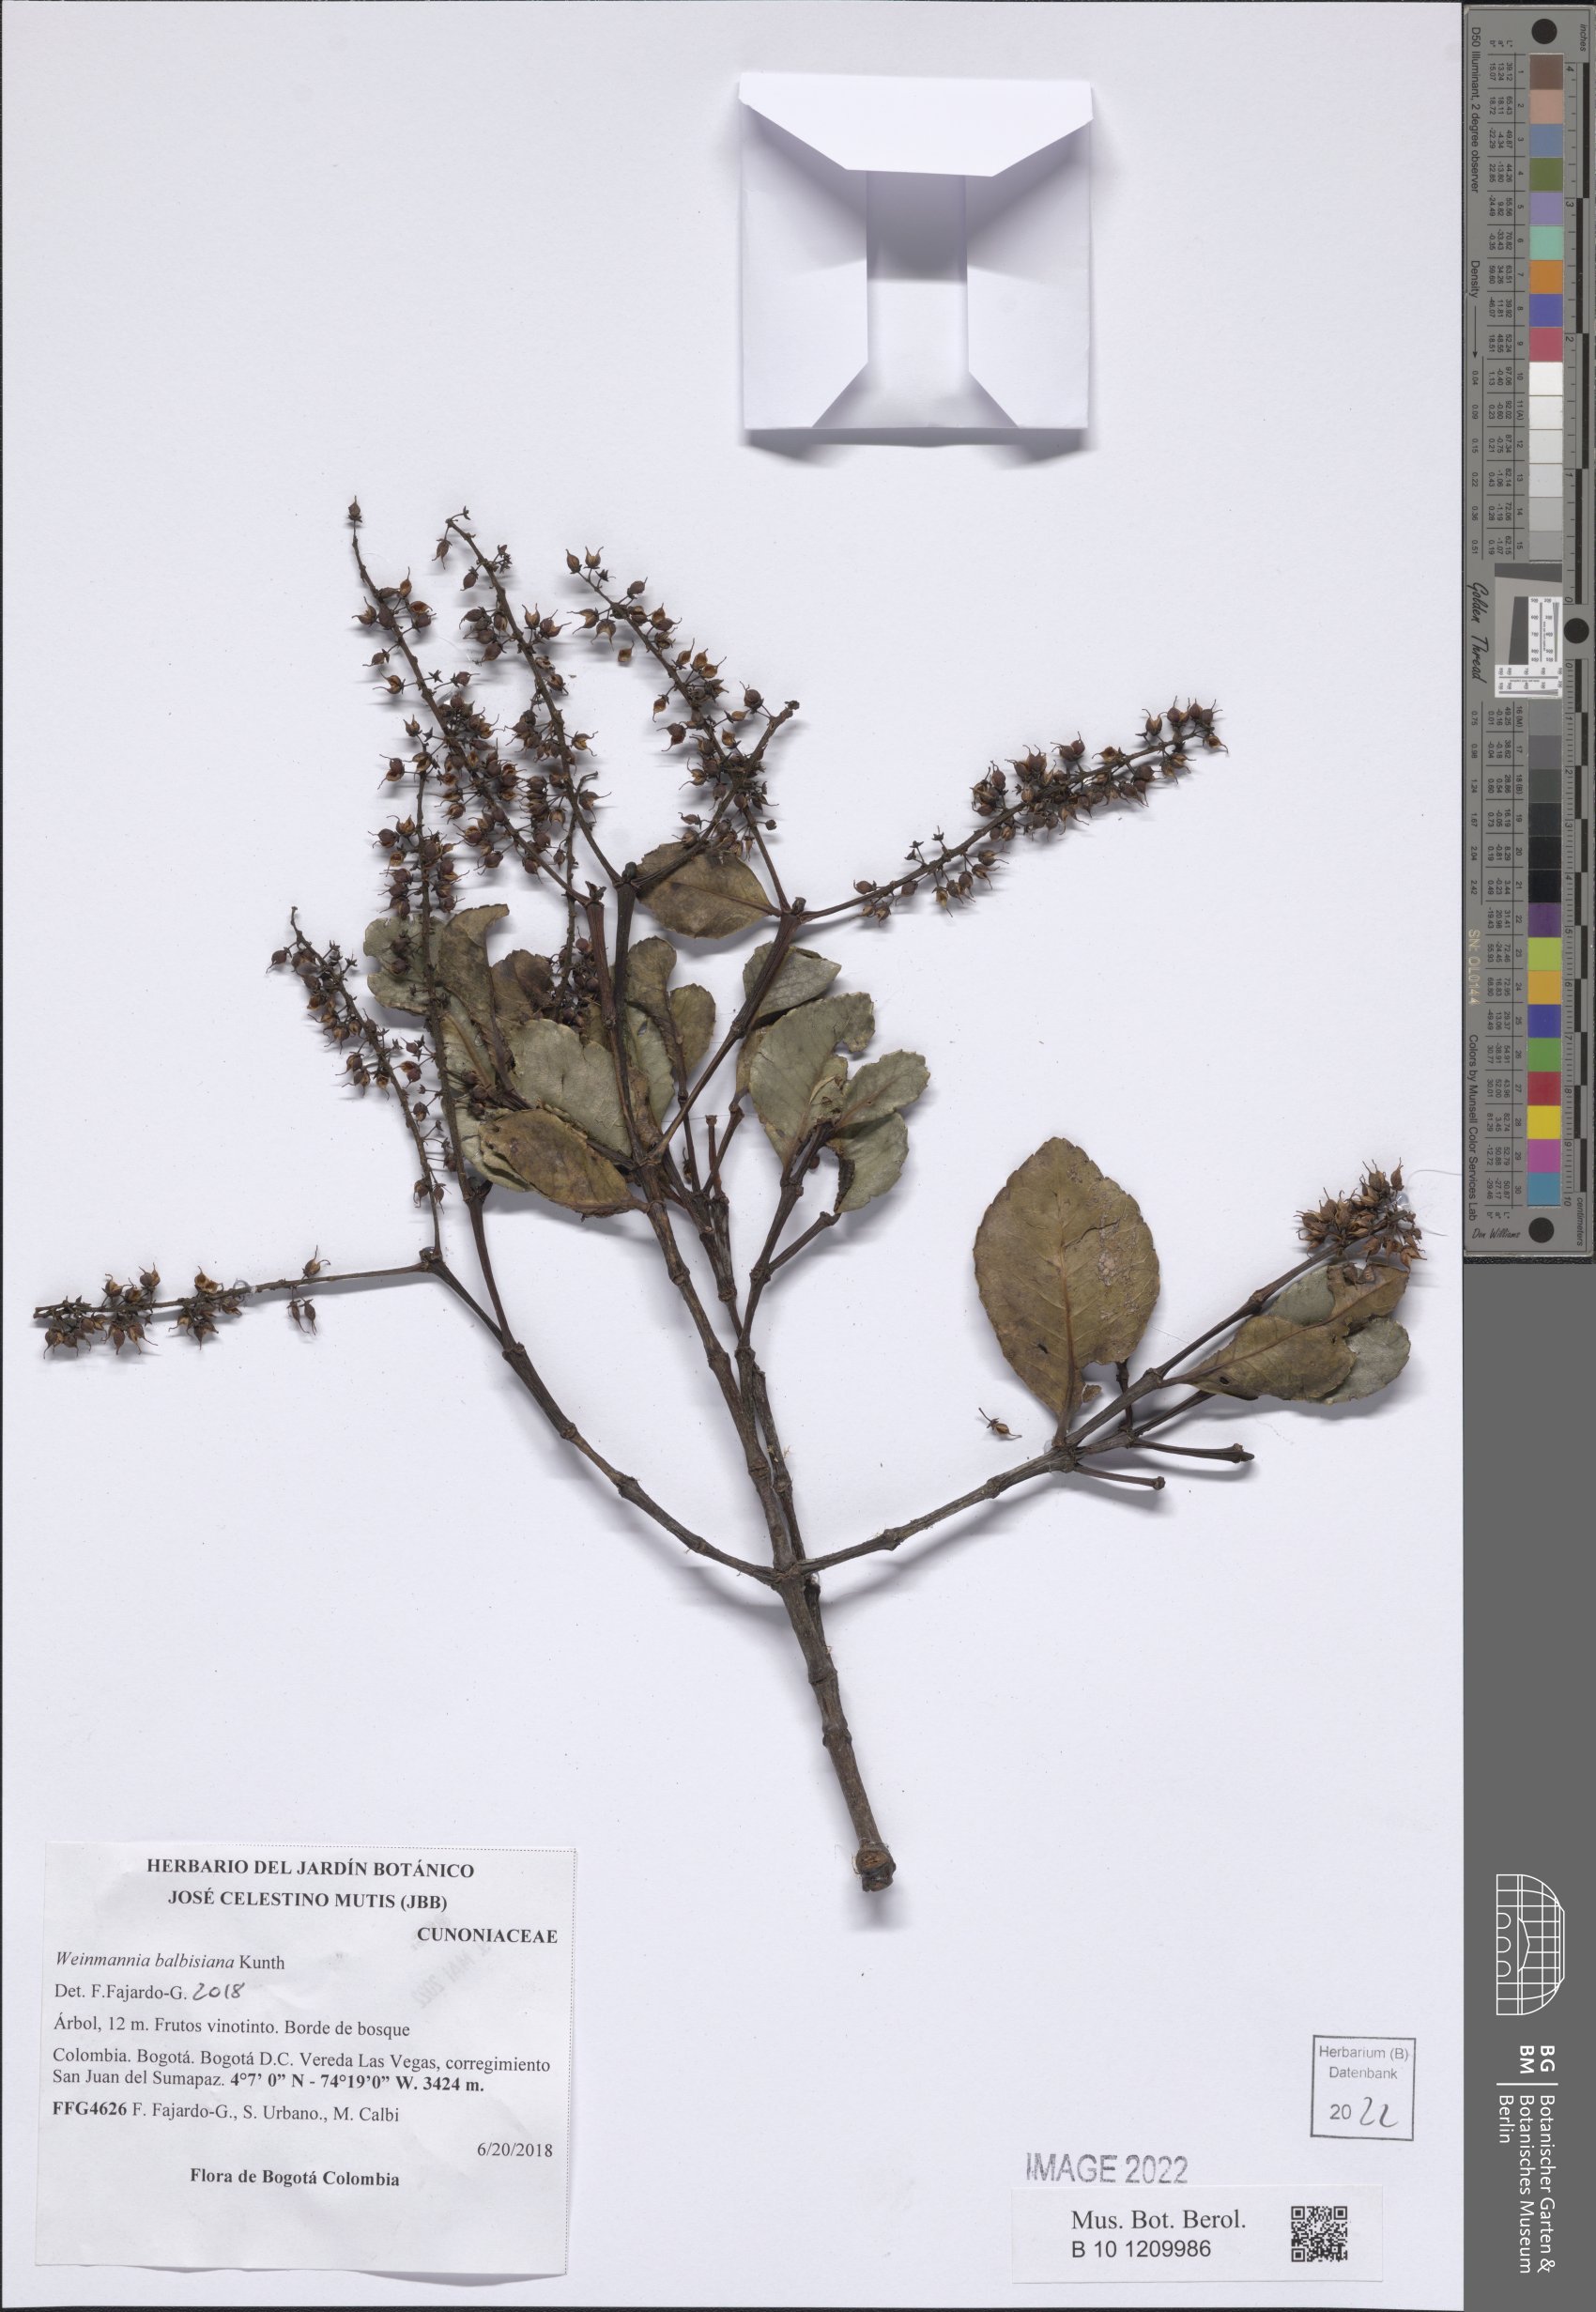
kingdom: Plantae
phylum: Tracheophyta
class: Magnoliopsida
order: Oxalidales
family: Cunoniaceae
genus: Weinmannia
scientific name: Weinmannia balbisana
